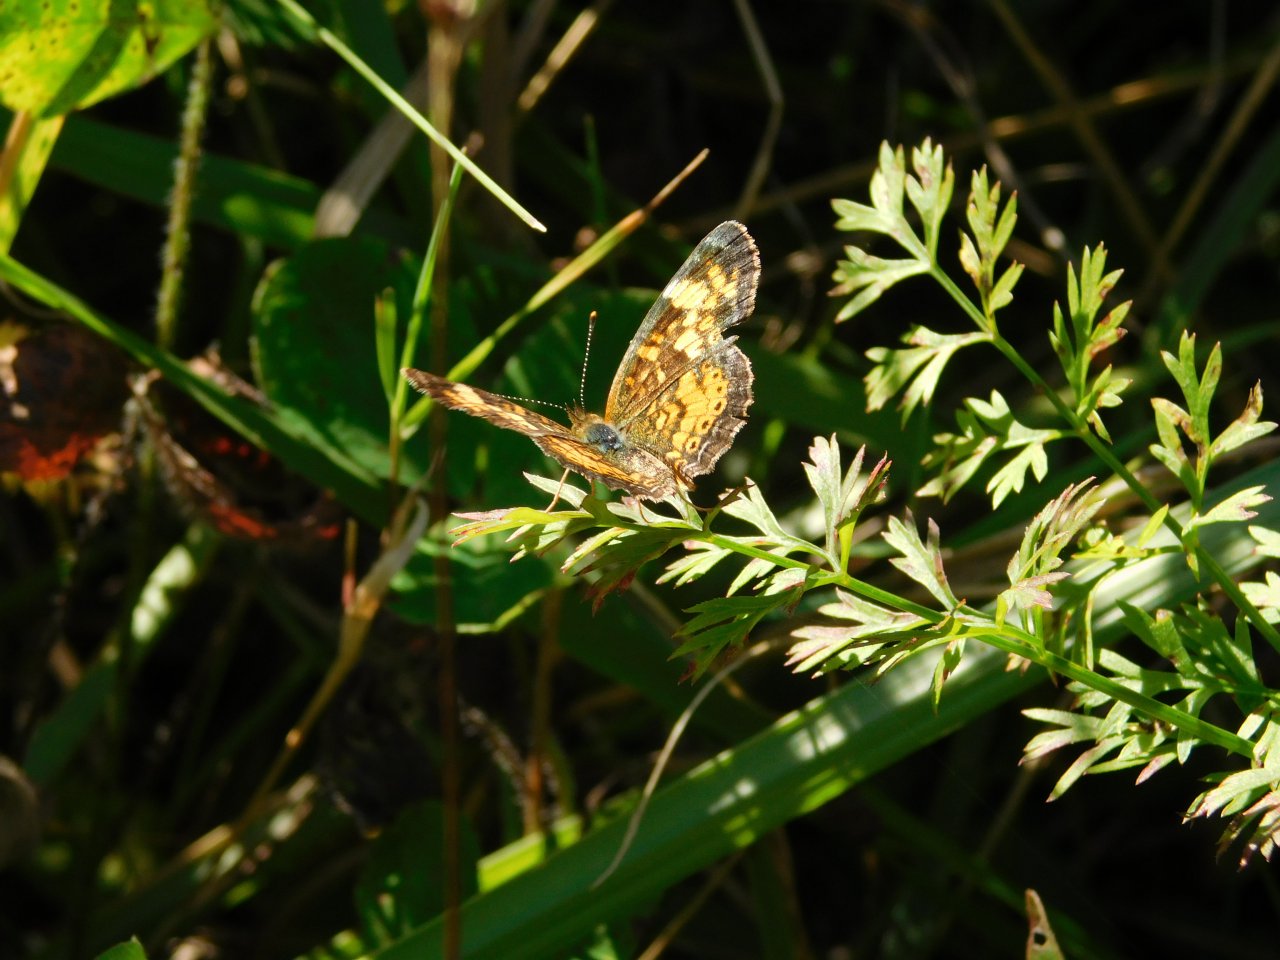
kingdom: Animalia
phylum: Arthropoda
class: Insecta
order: Lepidoptera
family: Nymphalidae
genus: Phyciodes
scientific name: Phyciodes tharos
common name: Northern Crescent
